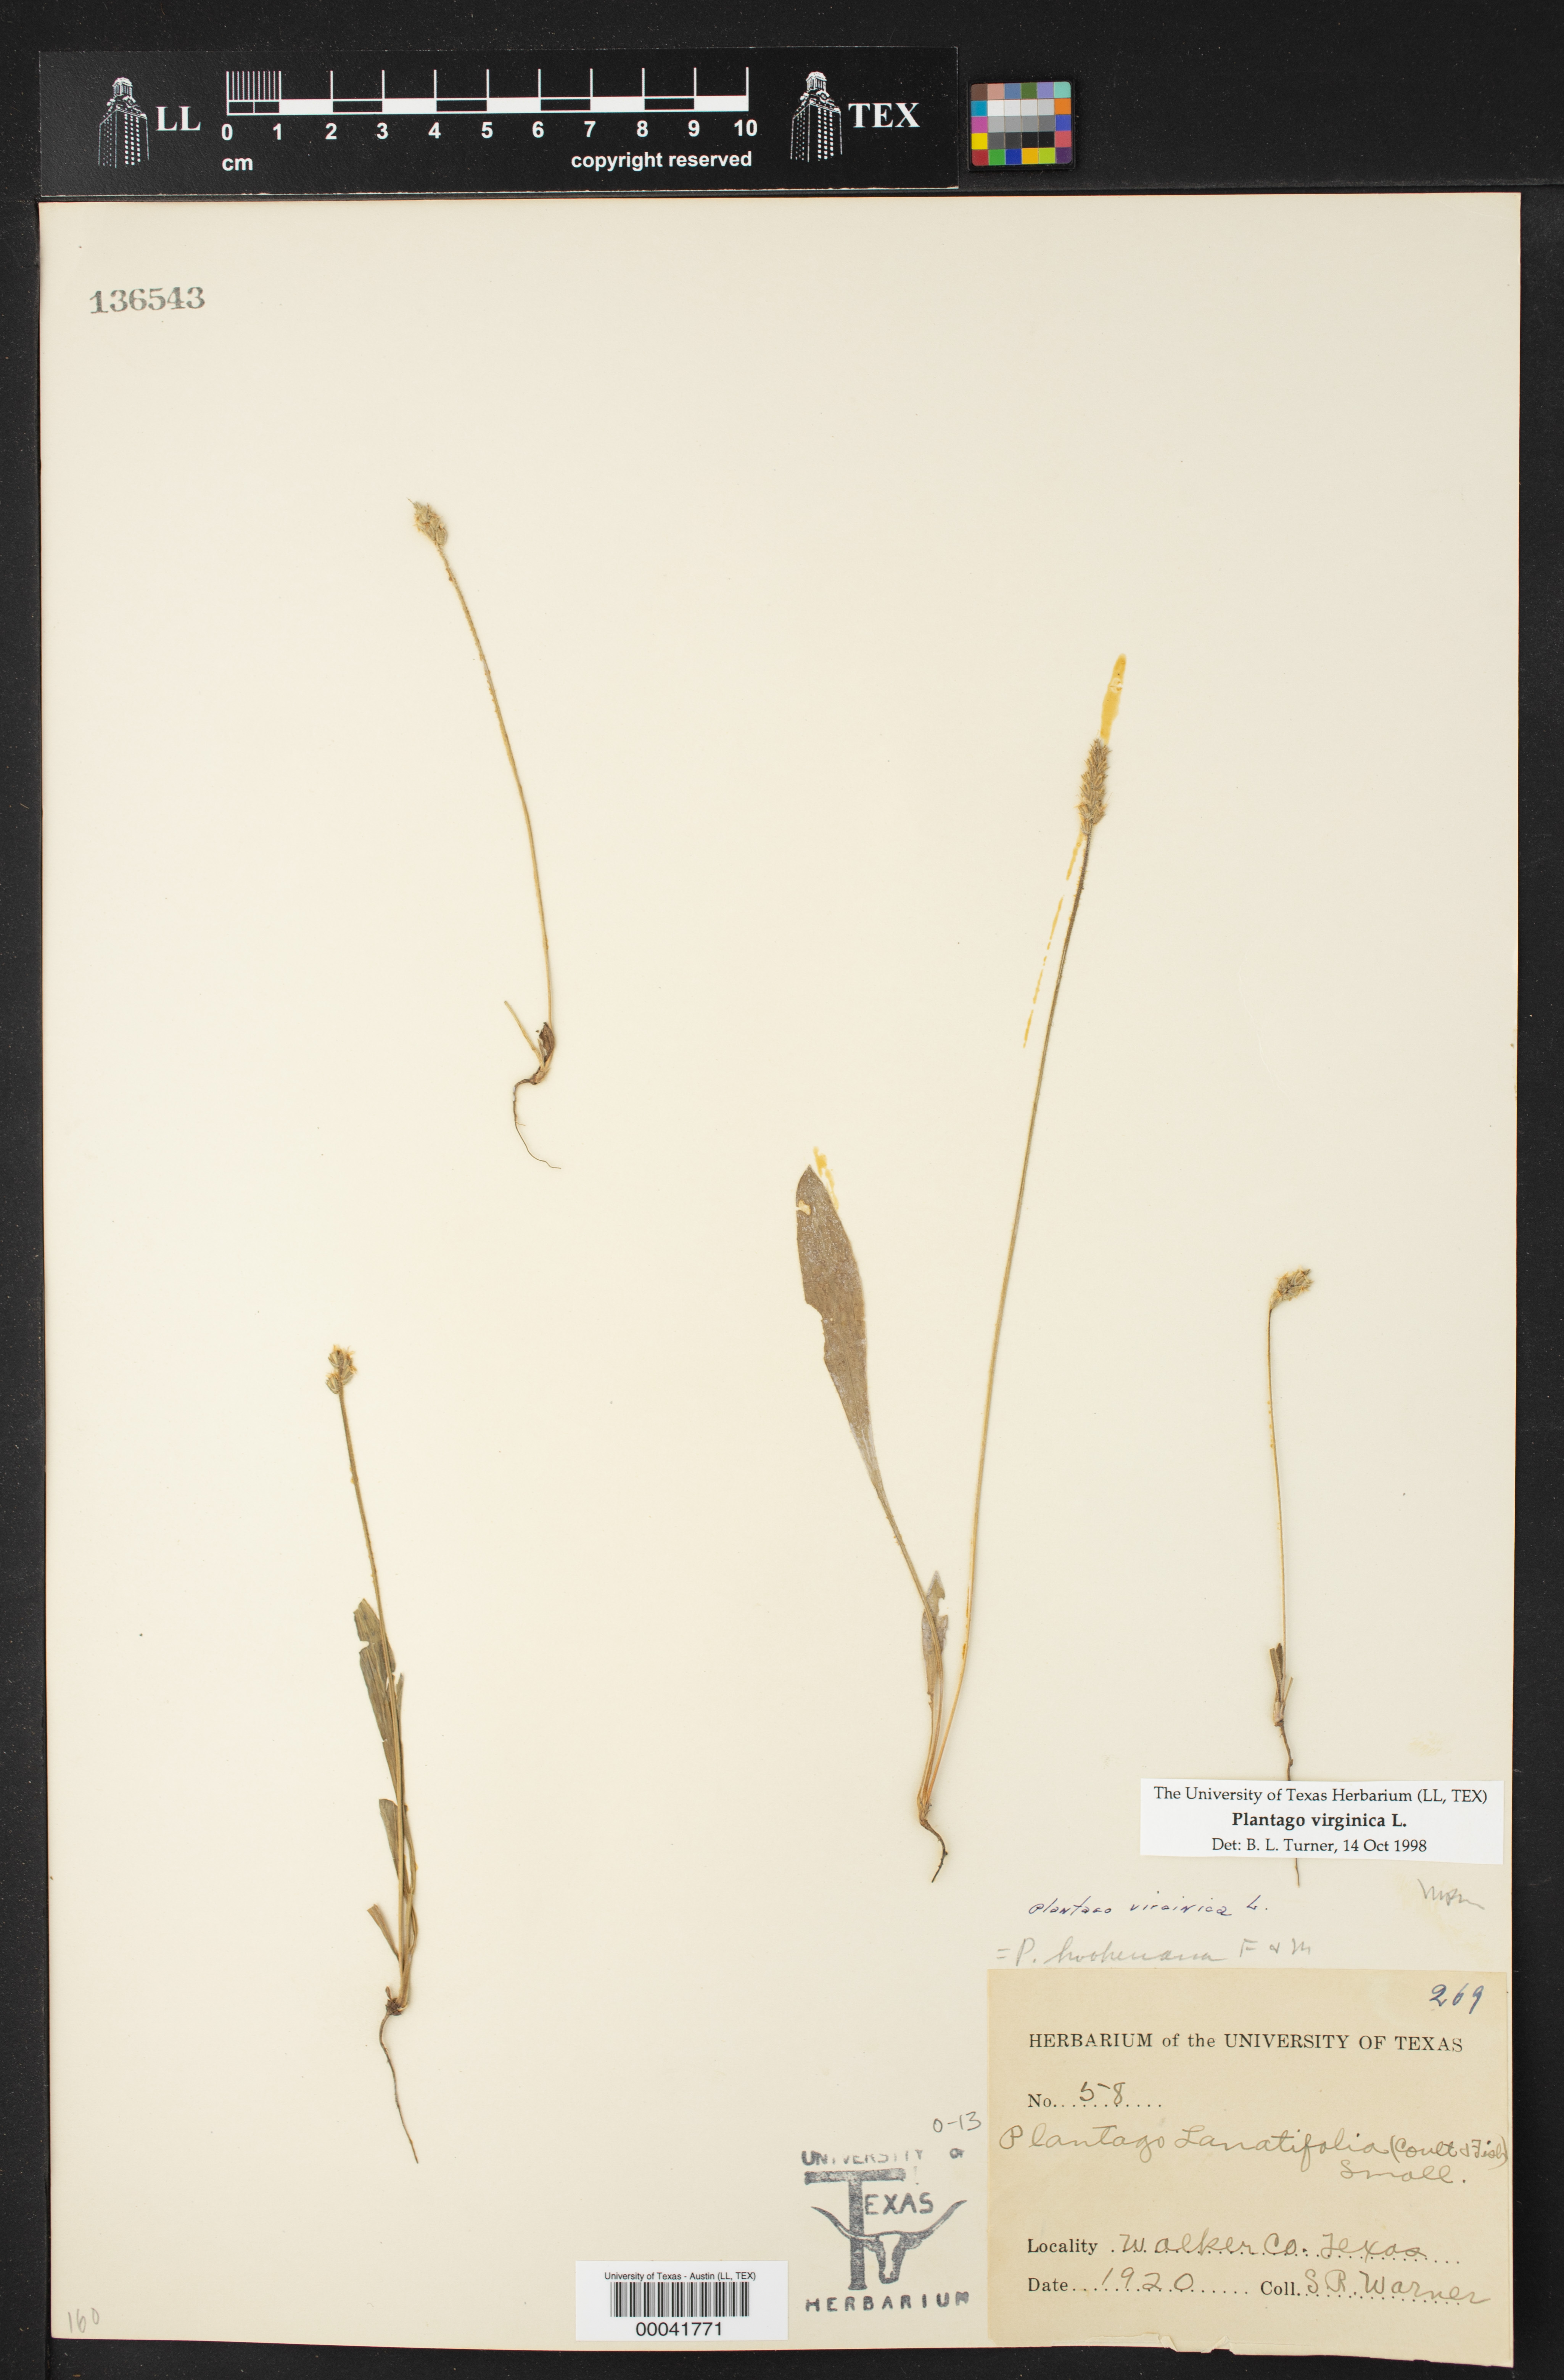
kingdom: Plantae
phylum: Tracheophyta
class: Magnoliopsida
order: Lamiales
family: Plantaginaceae
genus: Plantago
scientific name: Plantago virginica
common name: Hoary plantain
